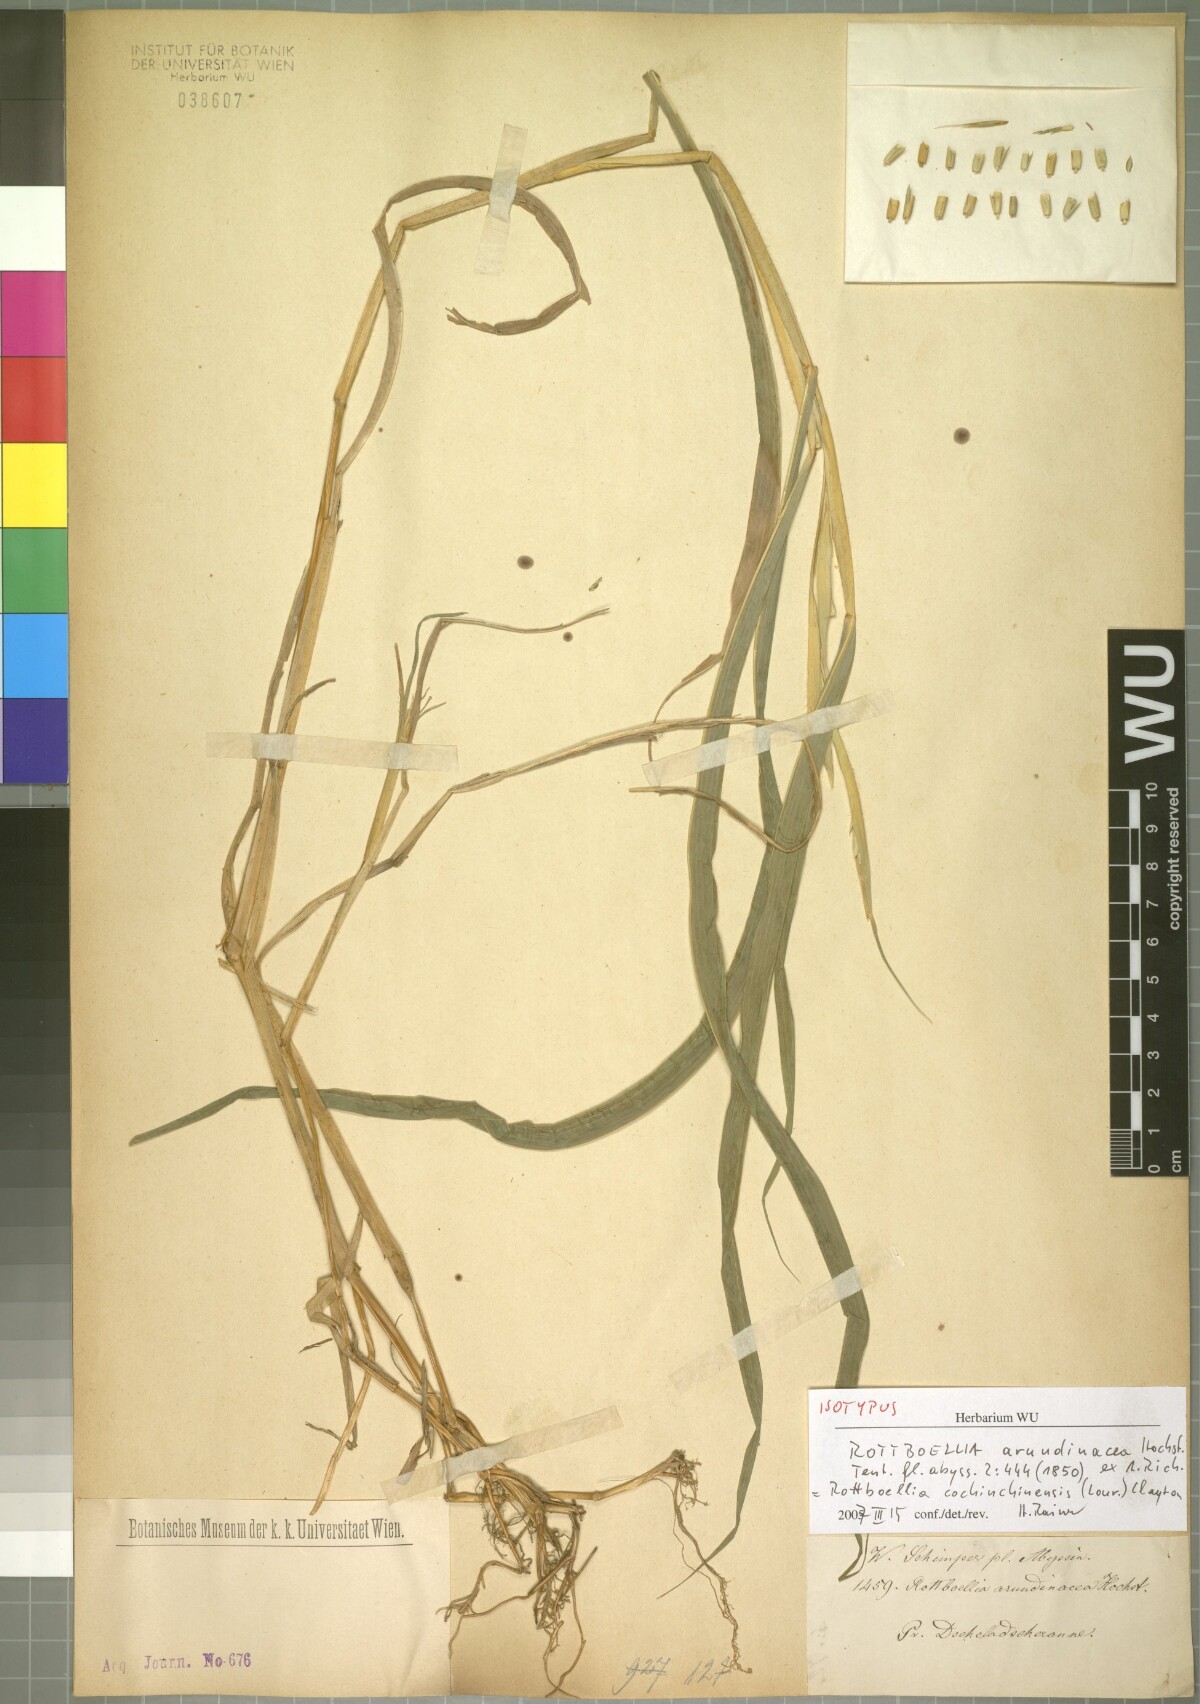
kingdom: Plantae
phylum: Tracheophyta
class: Liliopsida
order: Poales
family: Poaceae
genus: Rottboellia
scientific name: Rottboellia cochinchinensis
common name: Itchgrass
